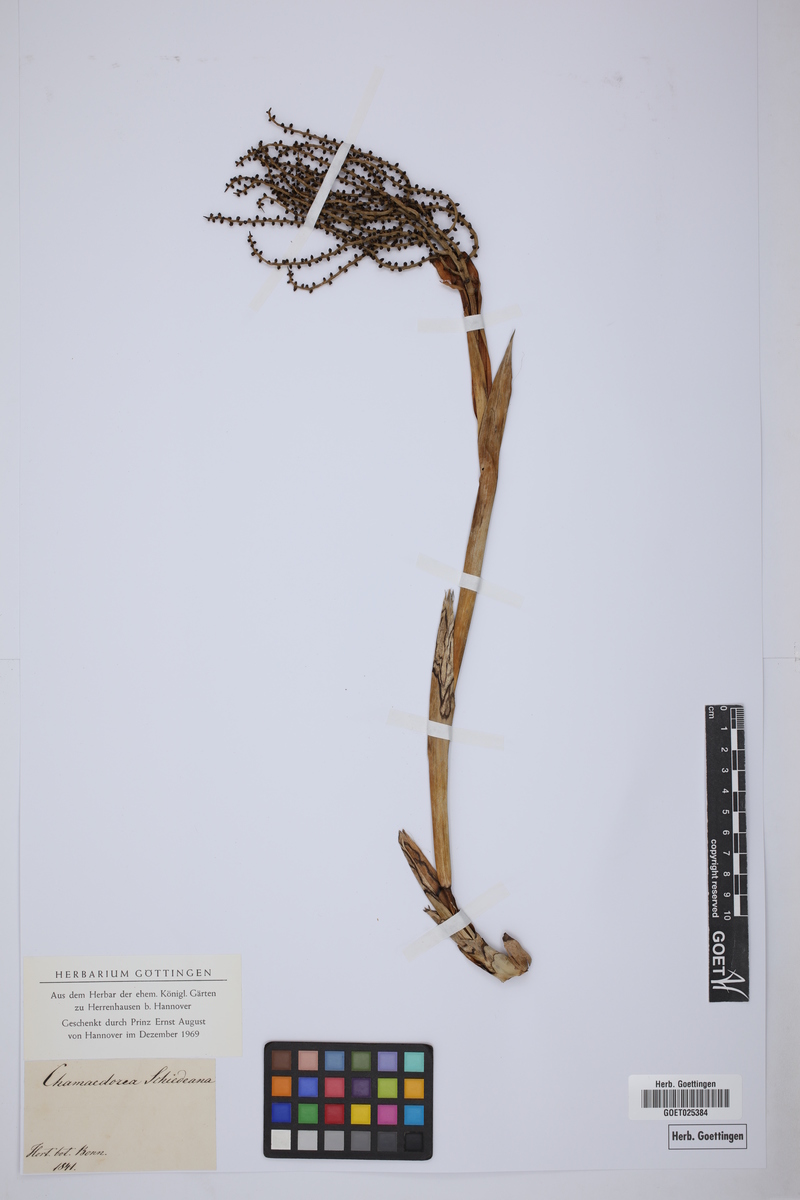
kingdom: Plantae
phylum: Tracheophyta
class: Liliopsida
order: Arecales
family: Arecaceae
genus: Chamaedorea
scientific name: Chamaedorea schiedeana
